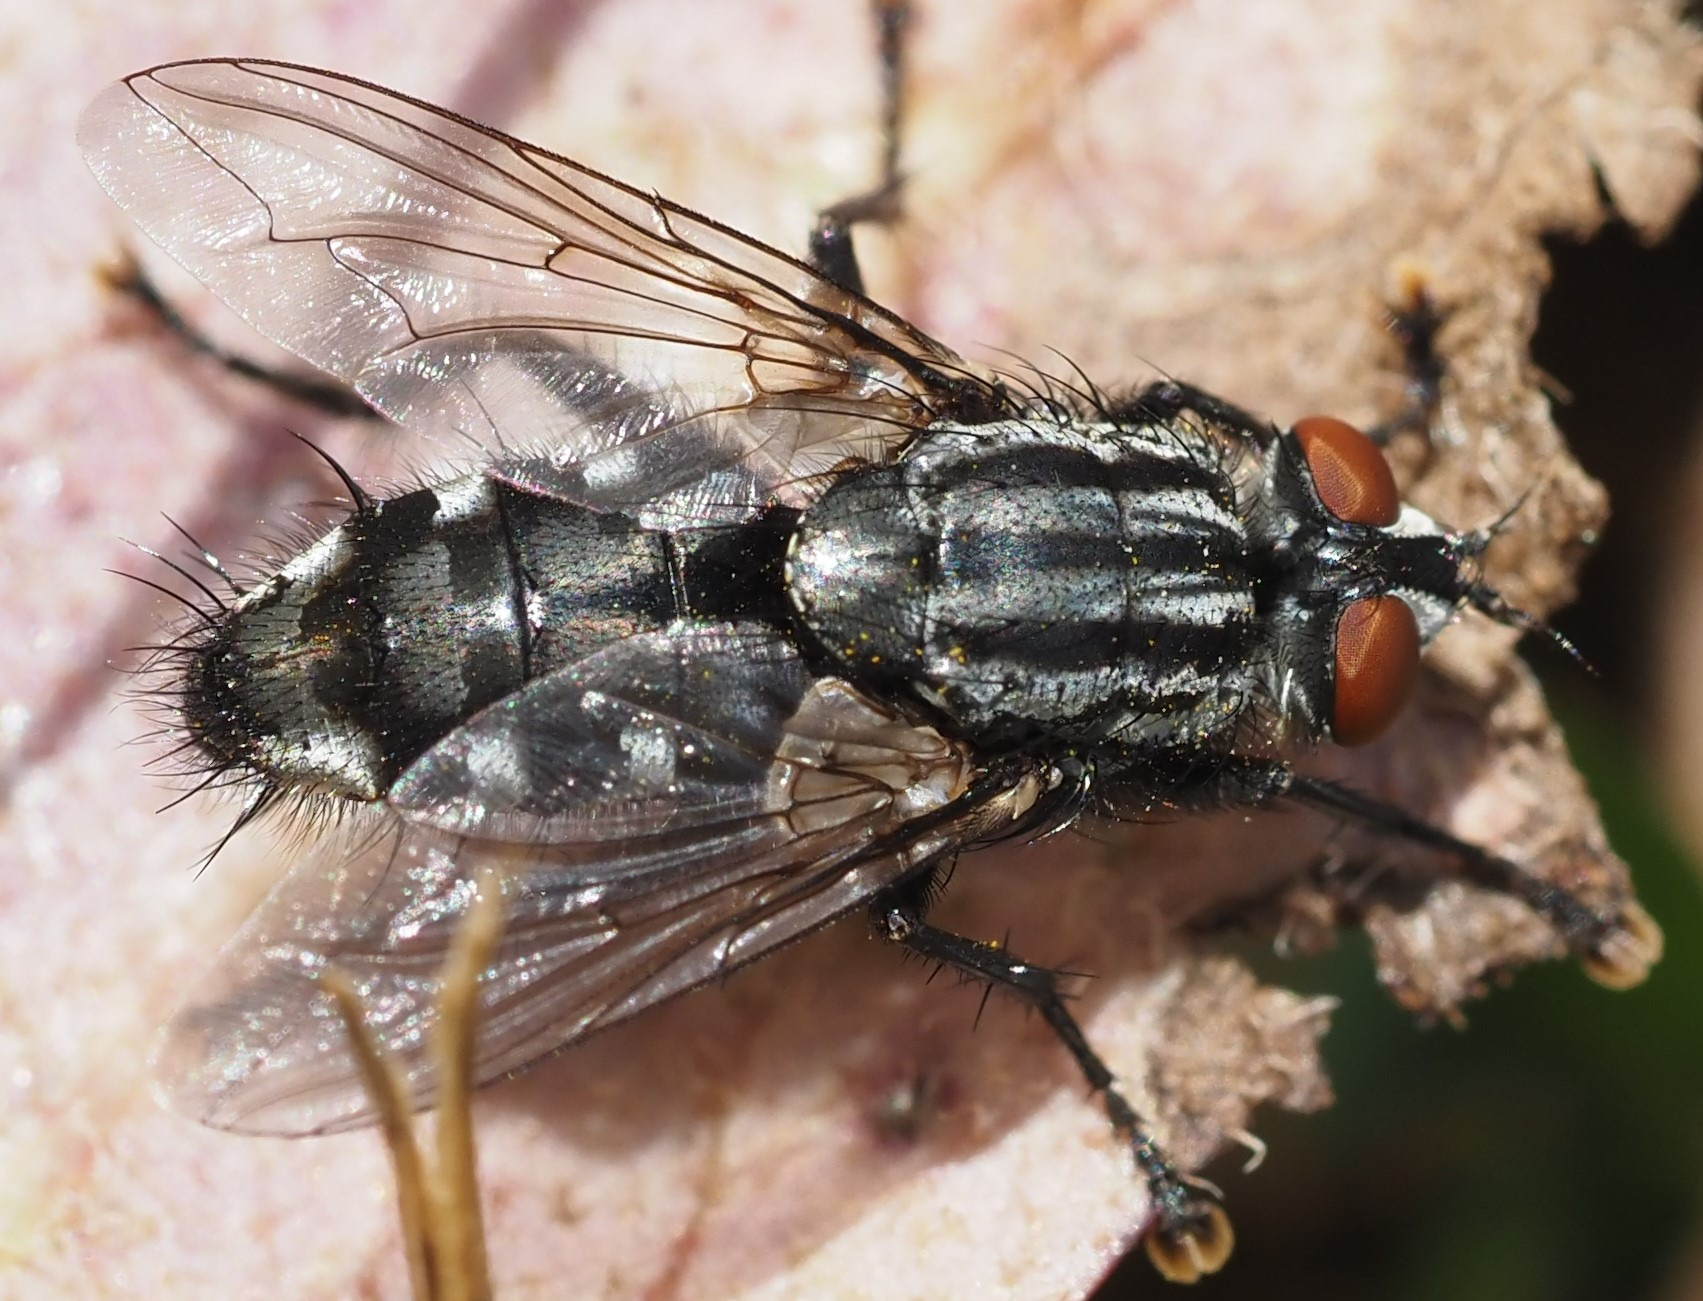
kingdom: Animalia
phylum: Arthropoda
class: Insecta
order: Diptera
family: Sarcophagidae
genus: Sarcophaga
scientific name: Sarcophaga
